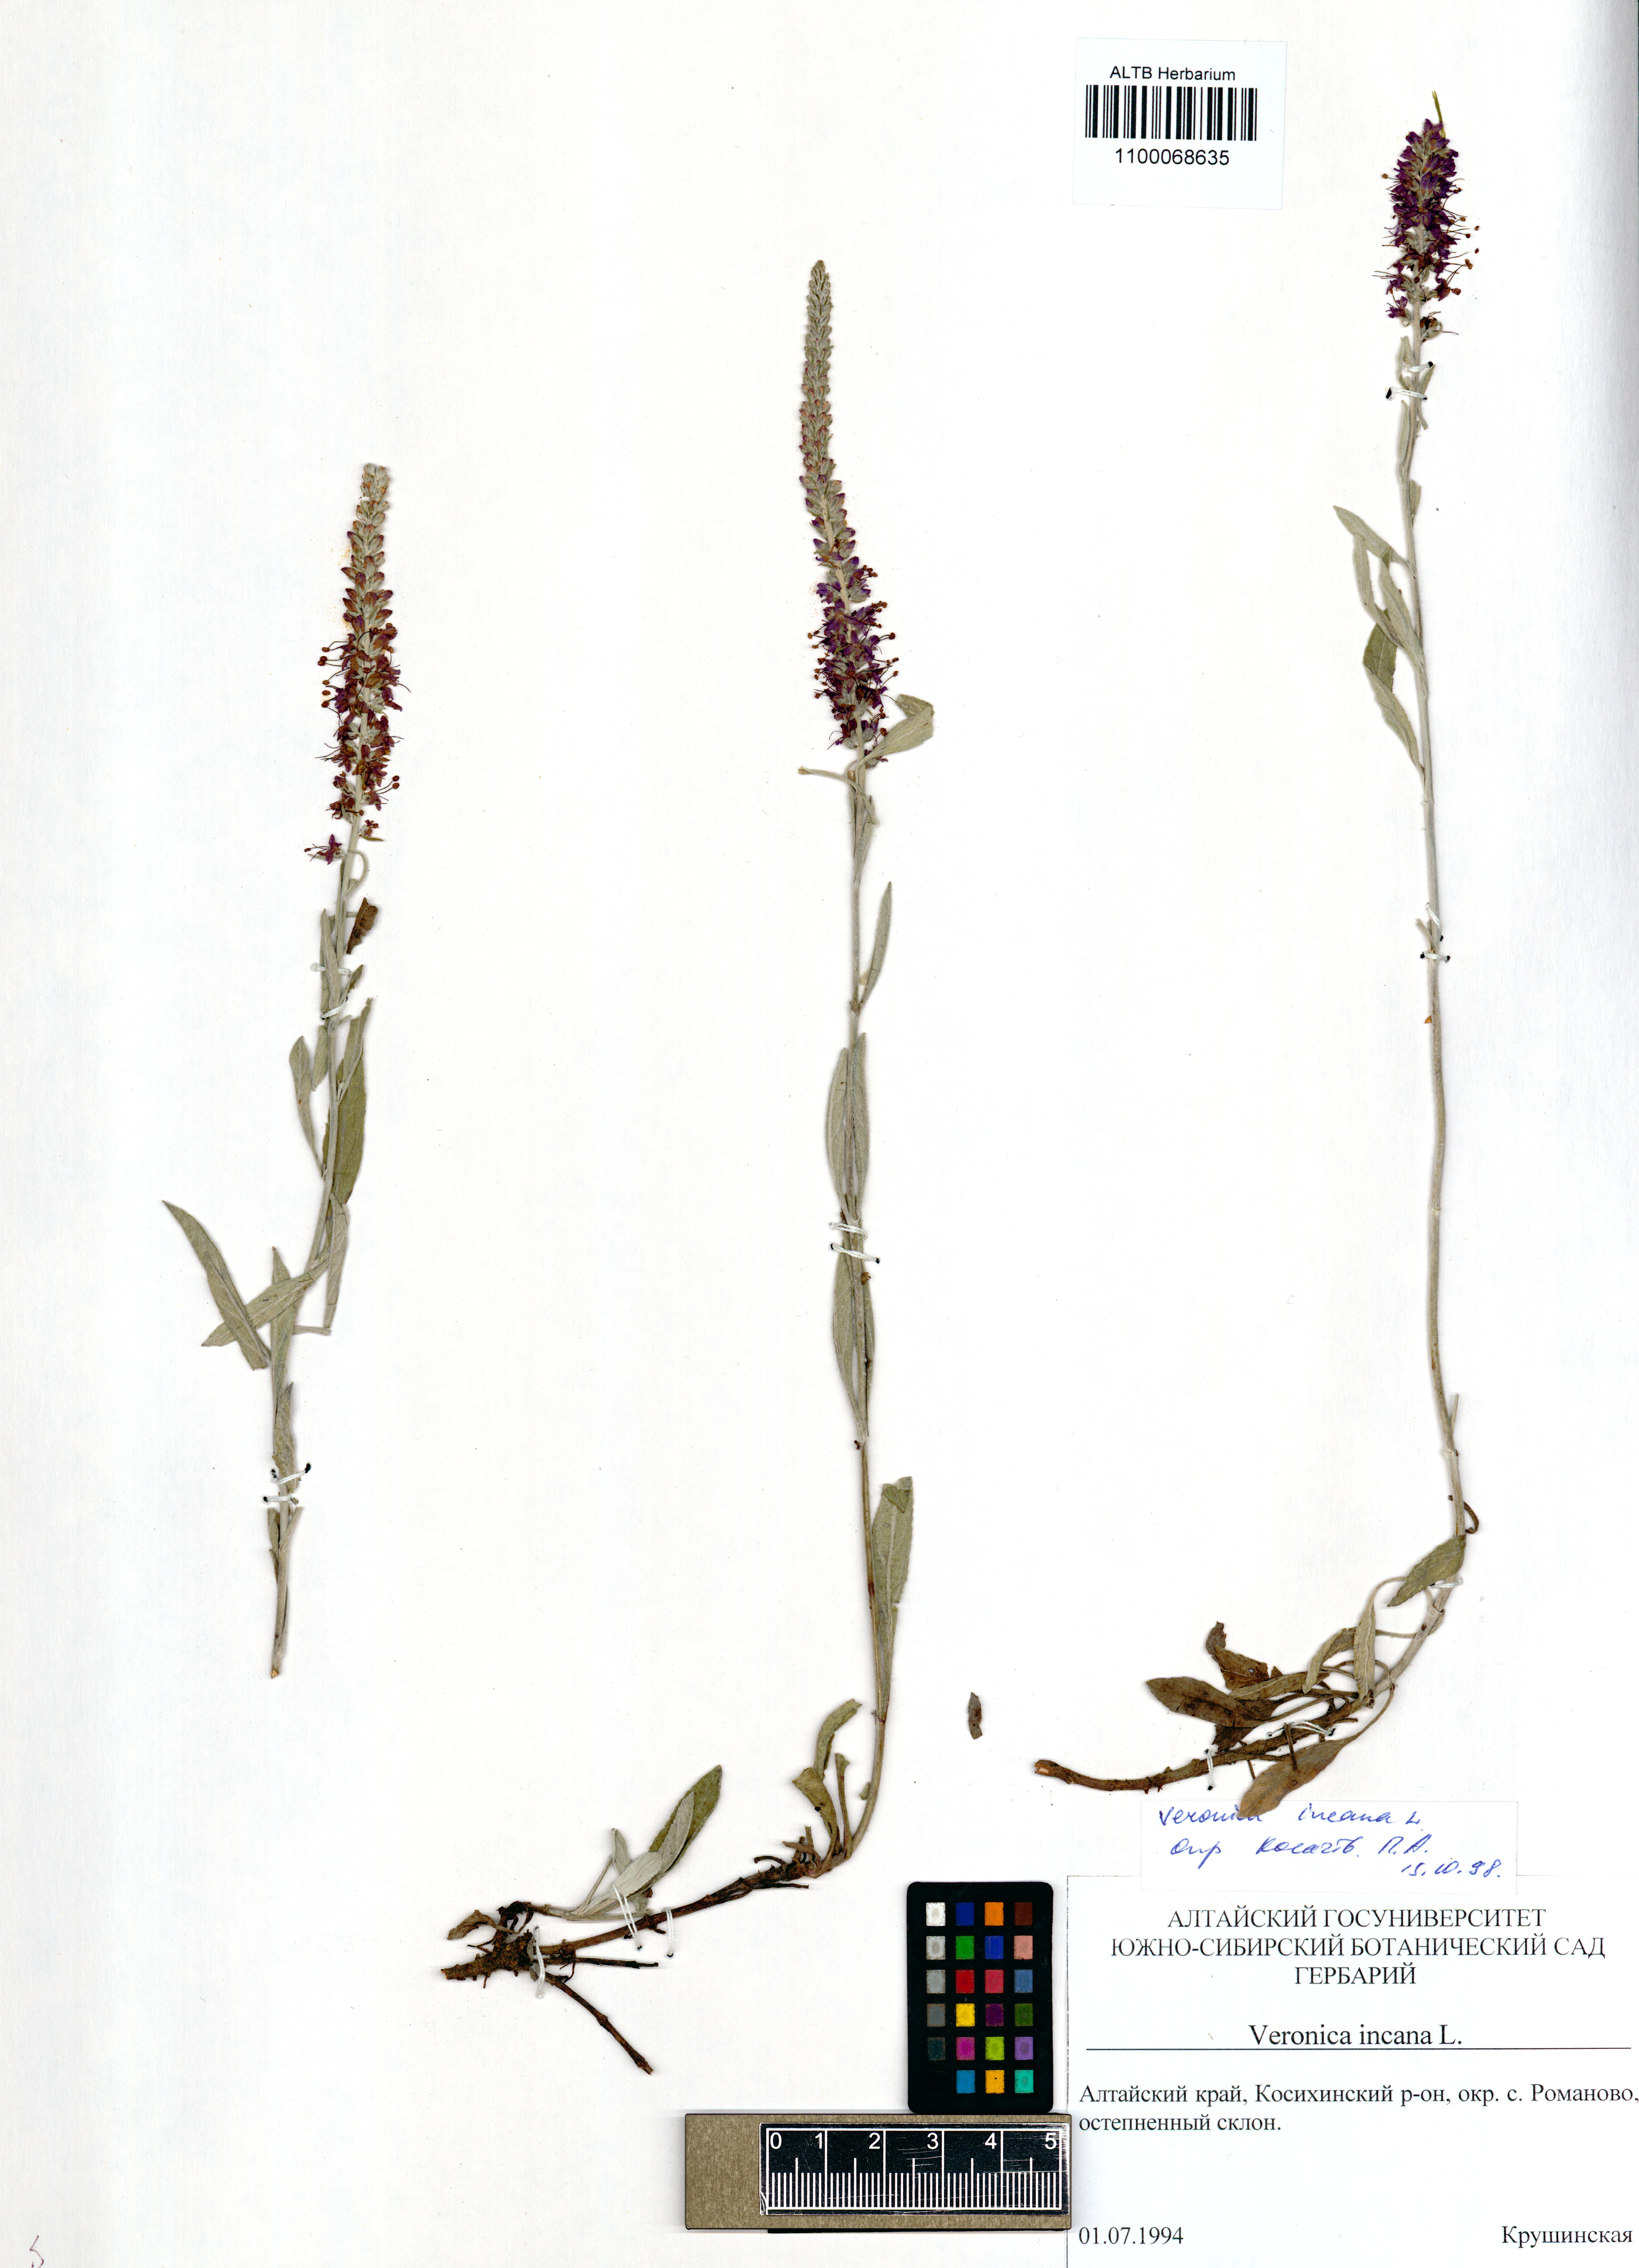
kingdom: Plantae
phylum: Tracheophyta
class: Magnoliopsida
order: Lamiales
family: Plantaginaceae
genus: Veronica
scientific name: Veronica incana
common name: Silver speedwell
